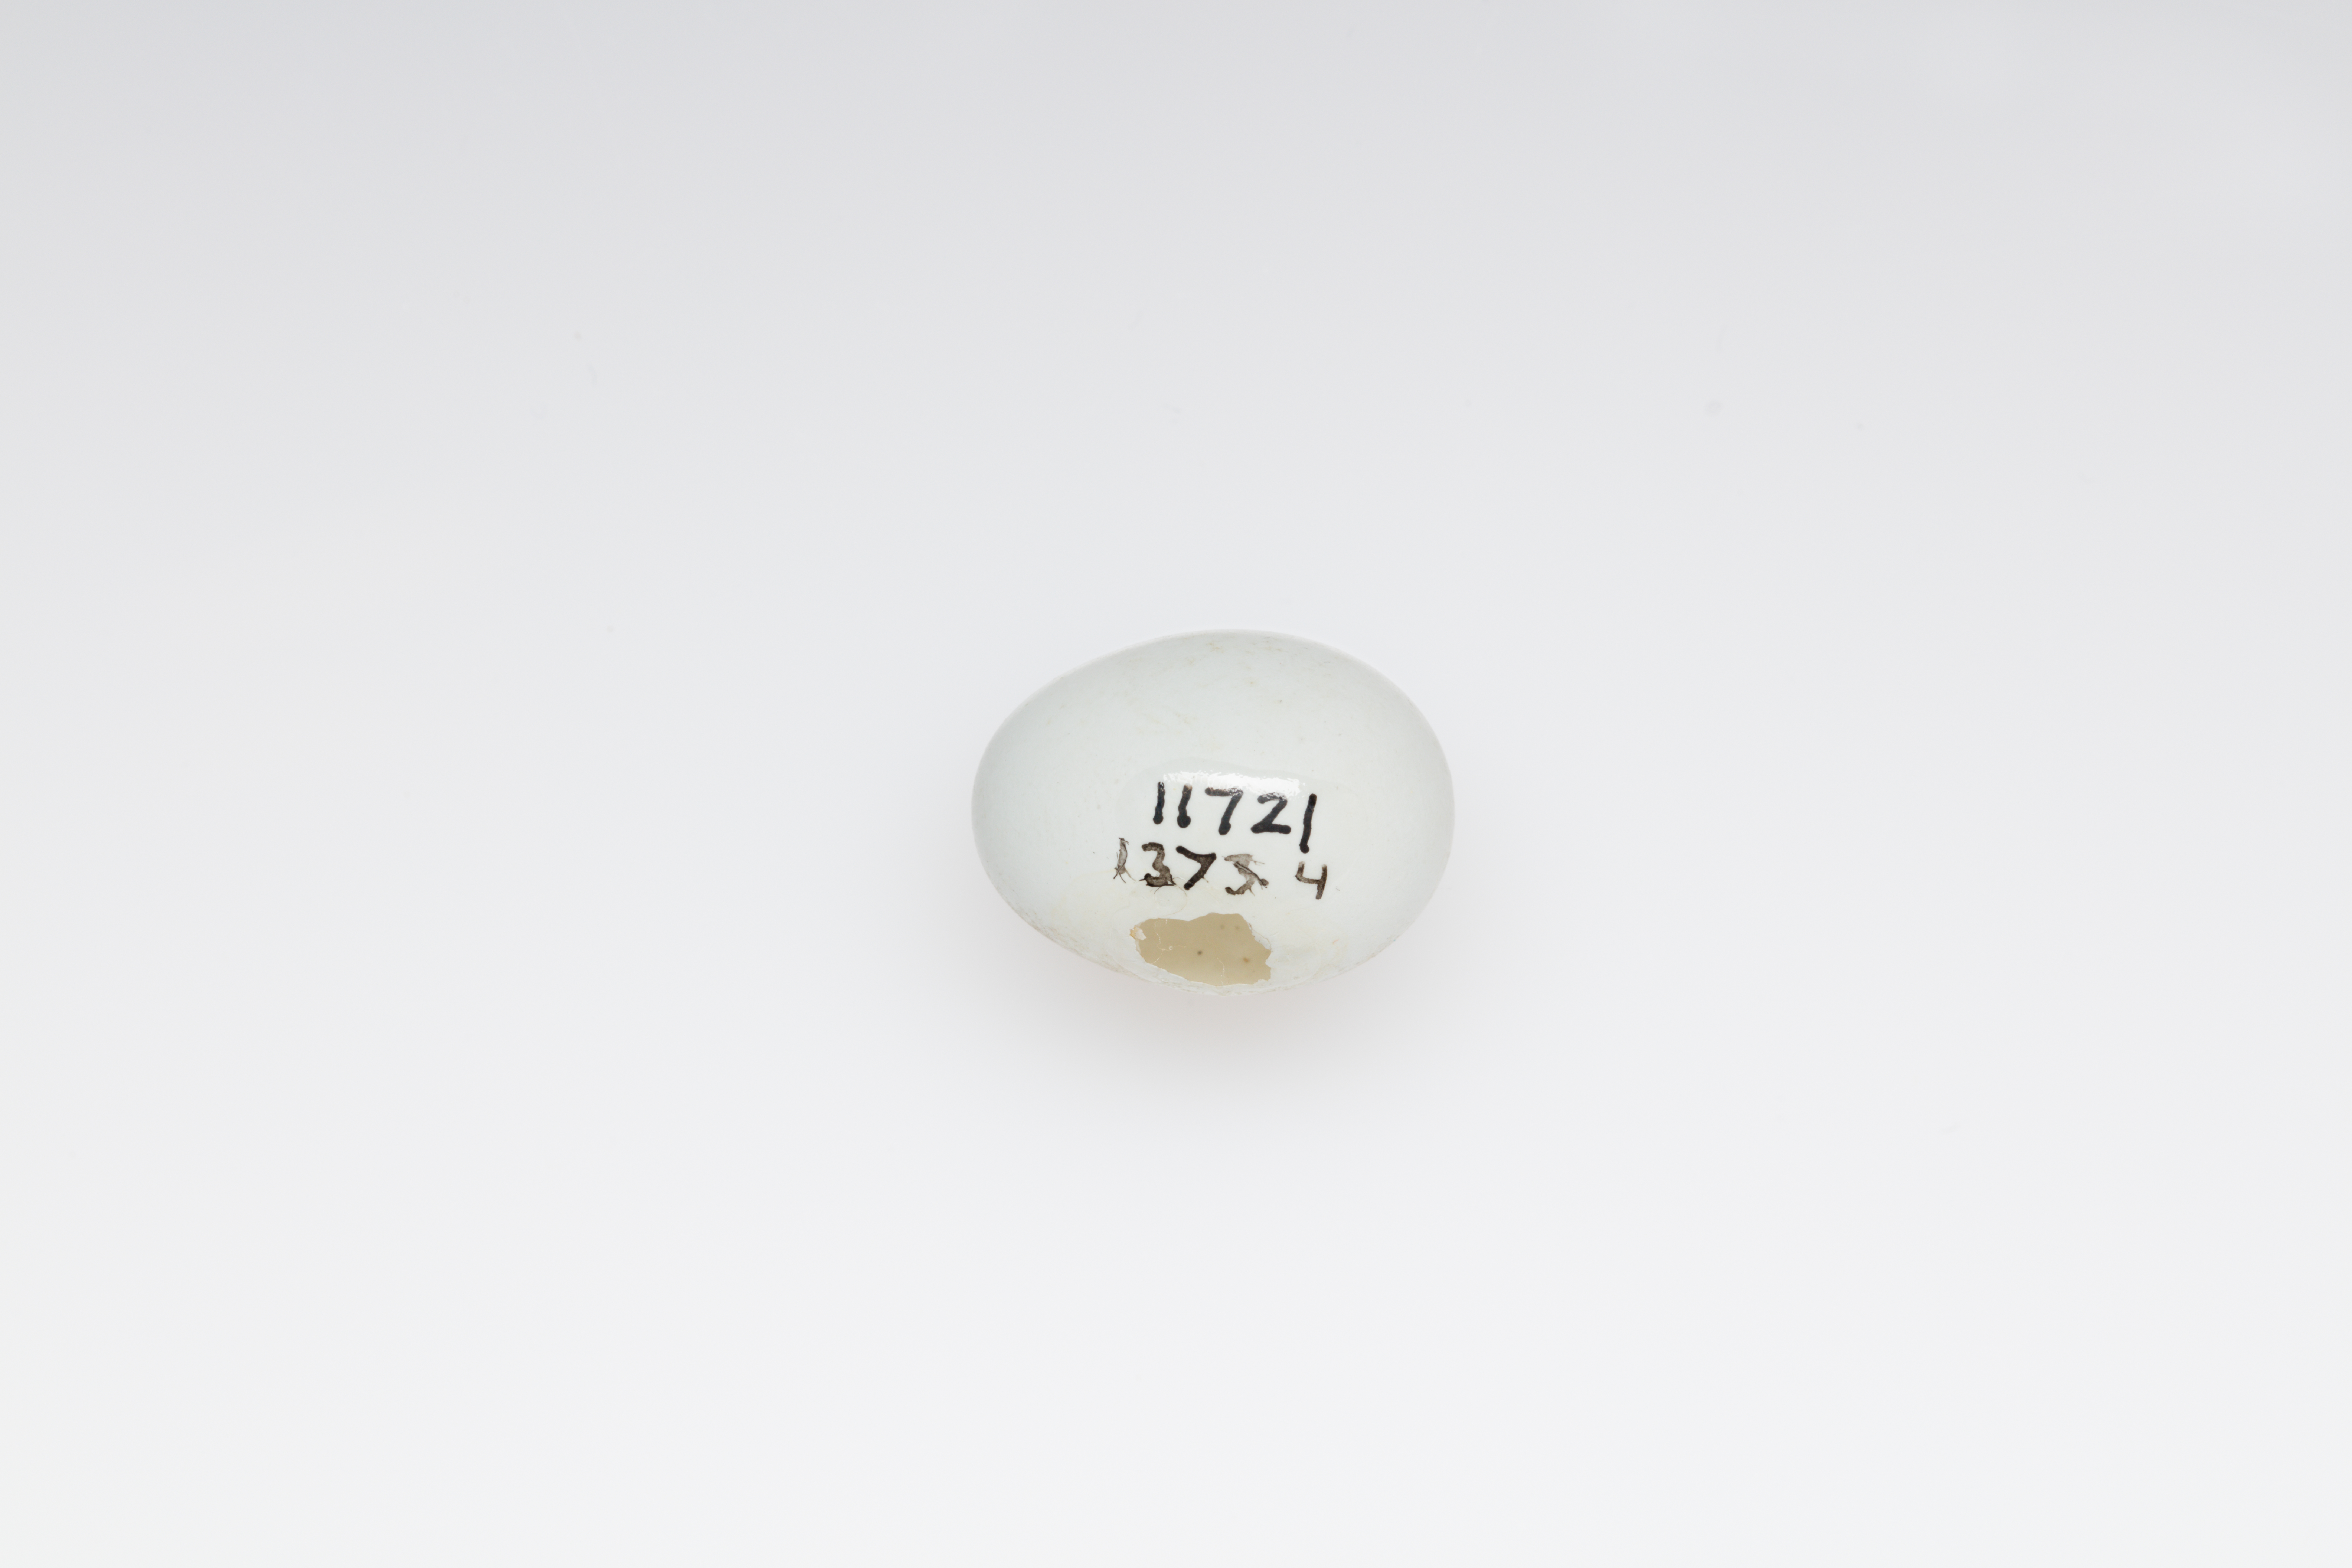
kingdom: Animalia
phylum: Chordata
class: Aves
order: Passeriformes
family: Zosteropidae
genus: Zosterops
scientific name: Zosterops tenuirostris
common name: Slender-billed white-eye
